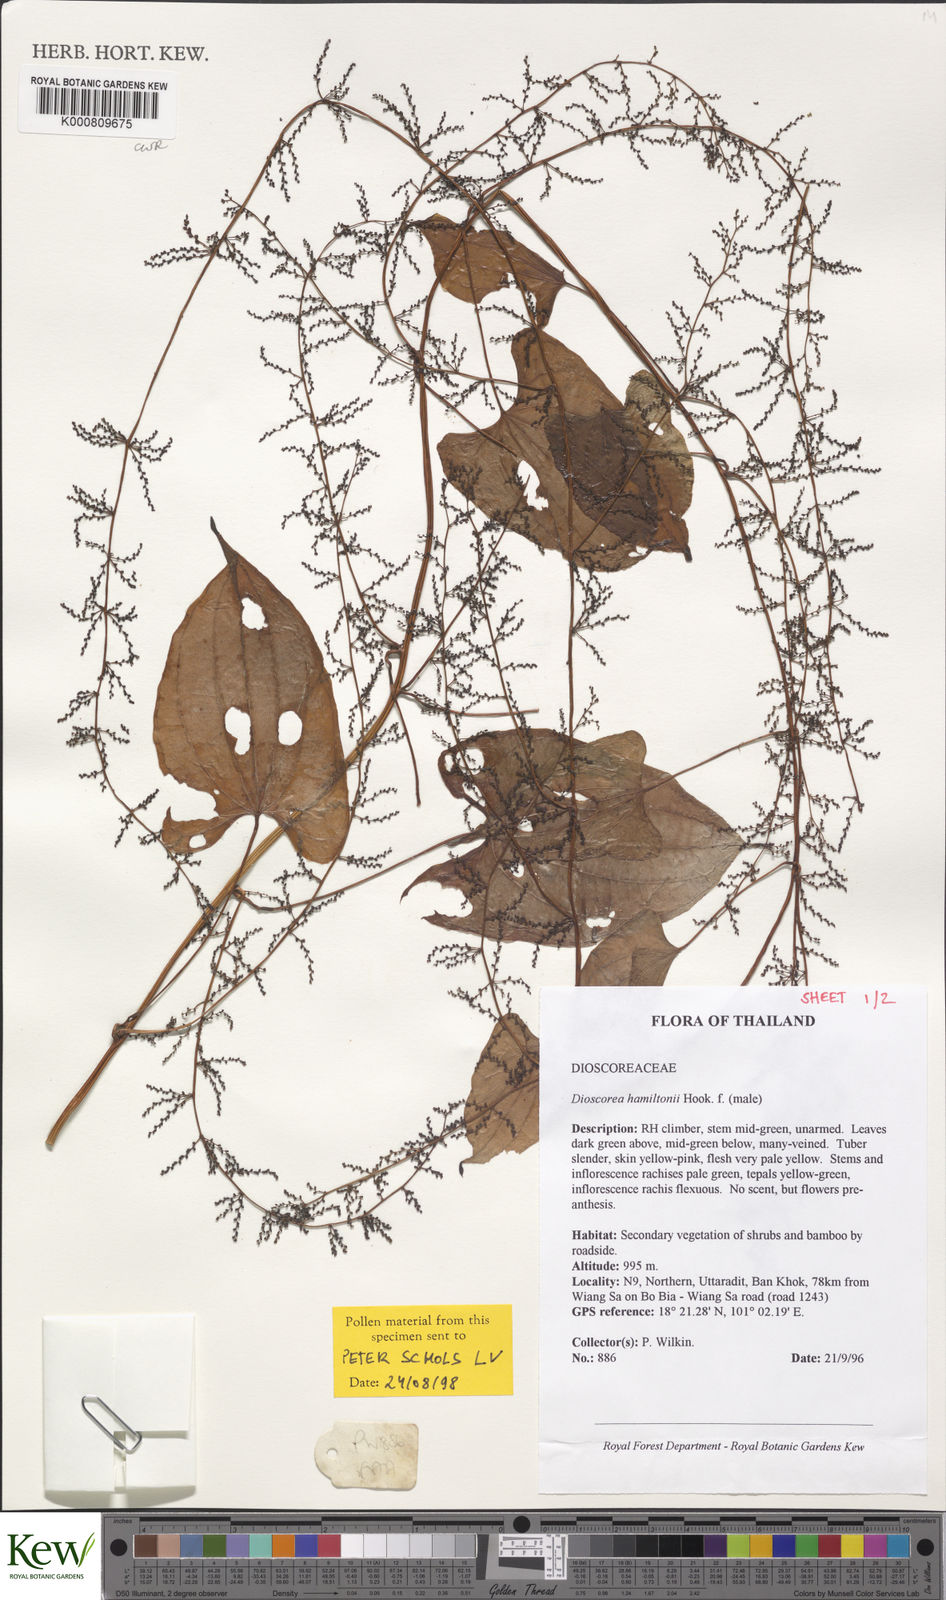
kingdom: Plantae
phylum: Tracheophyta
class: Liliopsida
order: Dioscoreales
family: Dioscoreaceae
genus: Dioscorea
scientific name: Dioscorea hamiltonii
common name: Mountain yam
